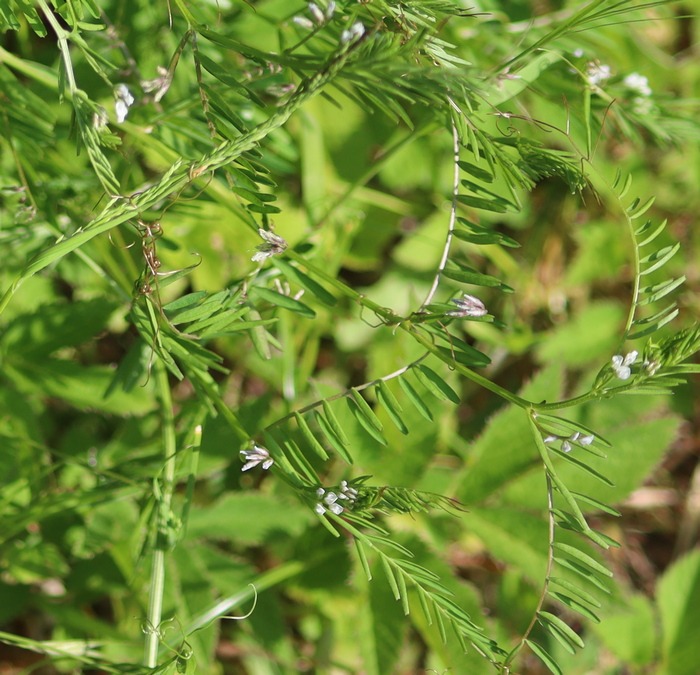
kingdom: Plantae
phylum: Tracheophyta
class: Magnoliopsida
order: Fabales
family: Fabaceae
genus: Vicia
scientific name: Vicia hirsuta
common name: Tofrøet vikke
